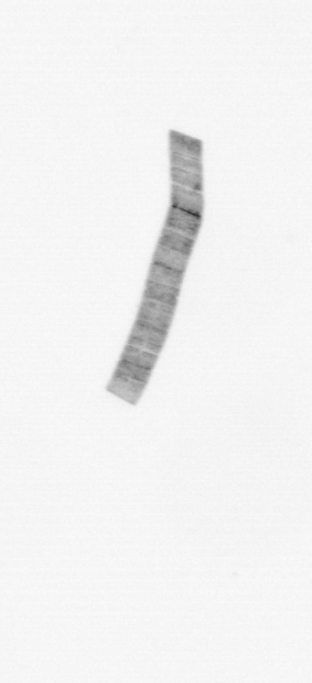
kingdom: Chromista
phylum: Ochrophyta
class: Bacillariophyceae
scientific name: Bacillariophyceae
